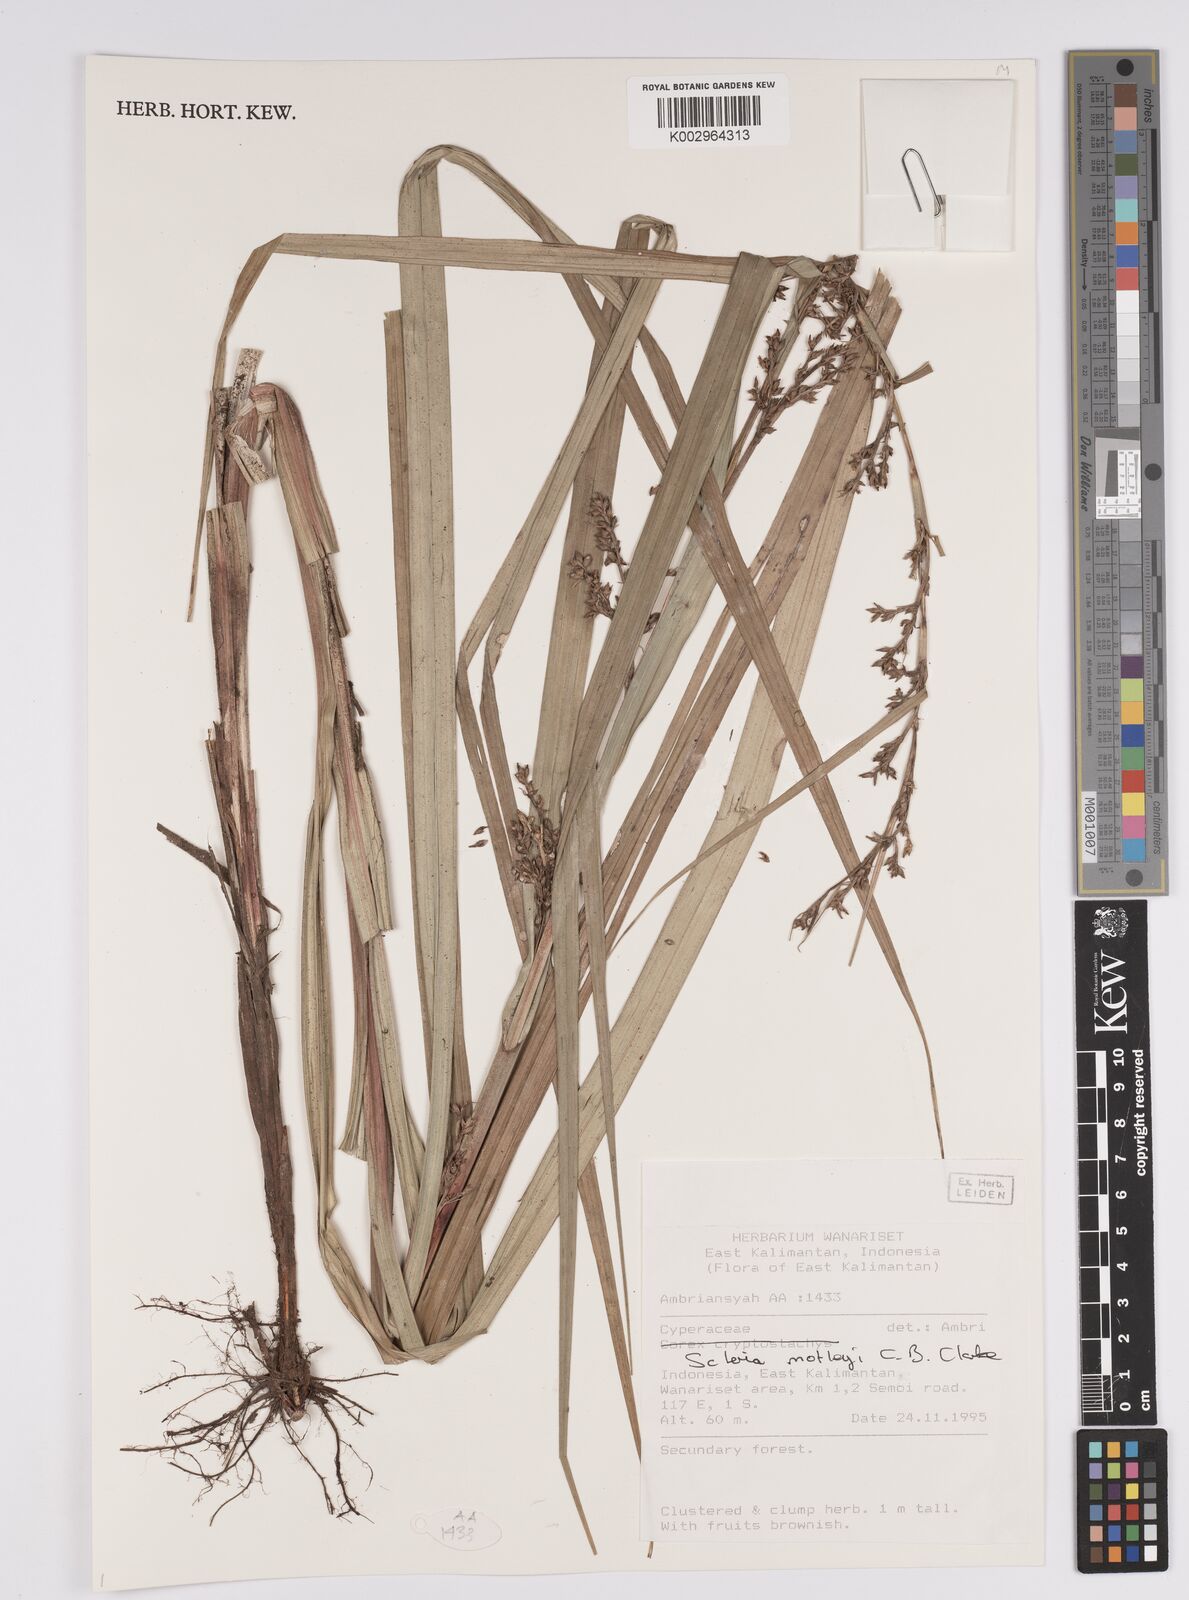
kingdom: Plantae
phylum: Tracheophyta
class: Liliopsida
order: Poales
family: Cyperaceae
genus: Scleria
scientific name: Scleria motleyi
